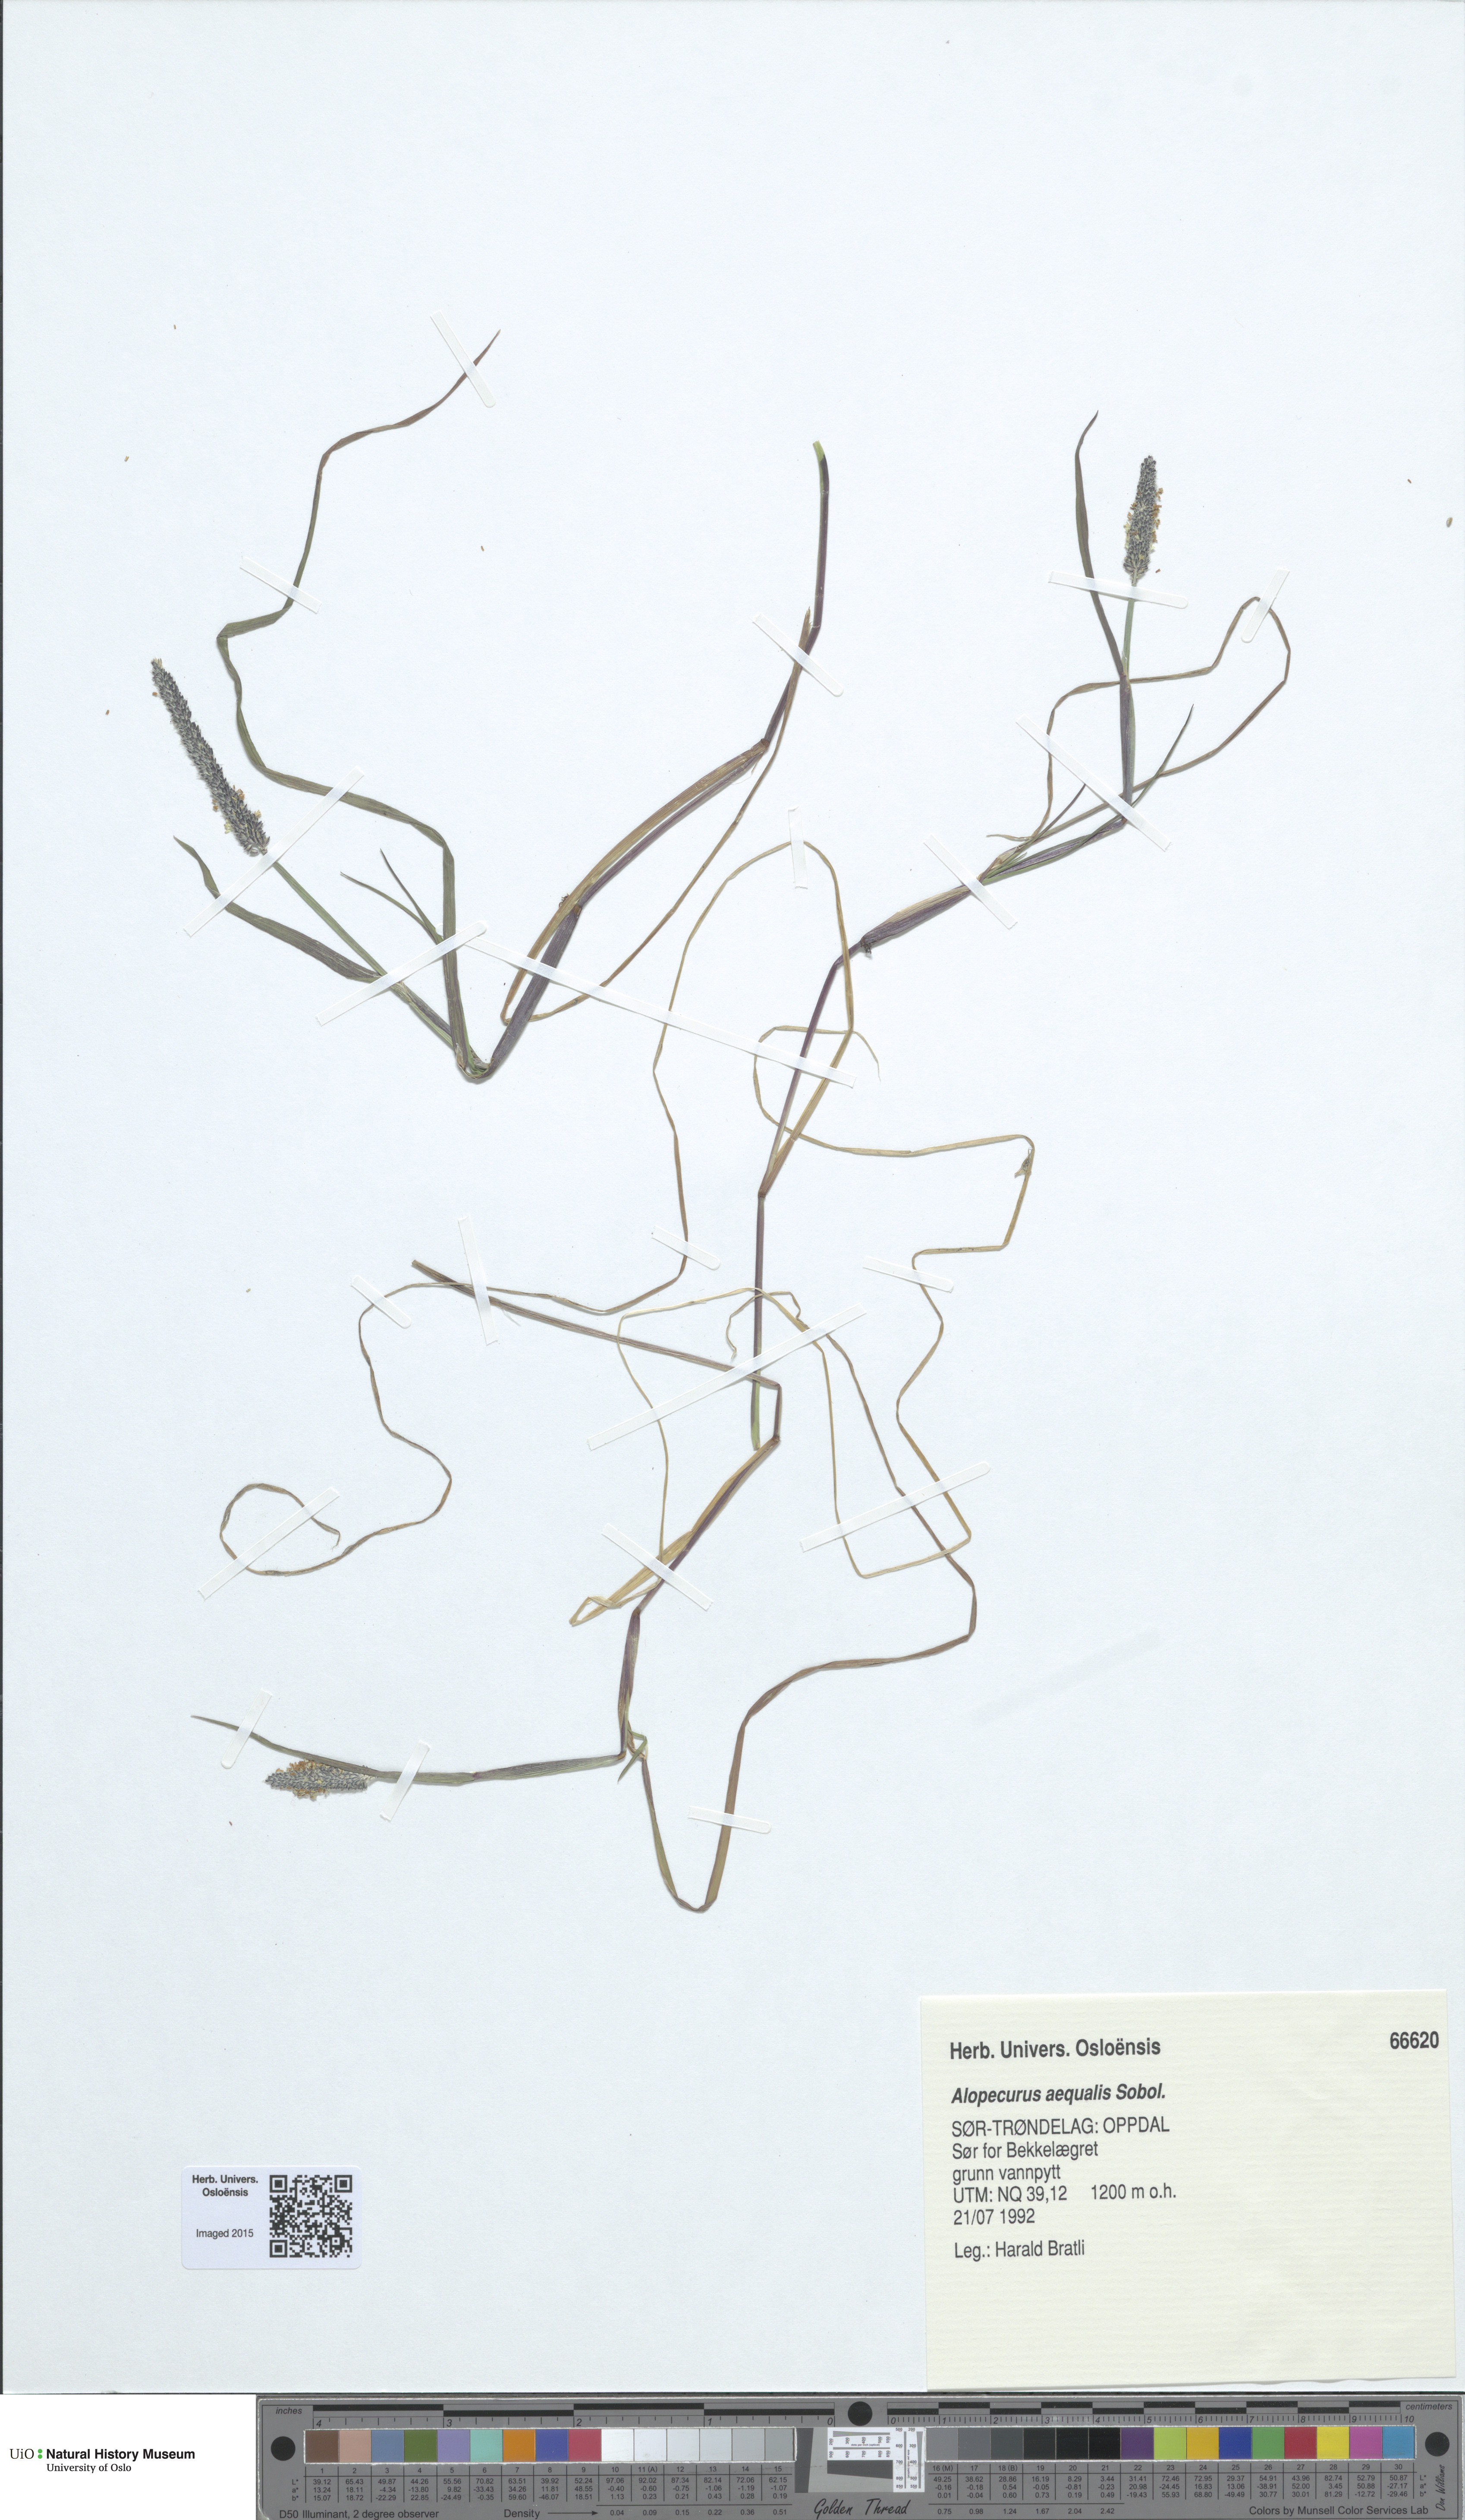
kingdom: Plantae
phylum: Tracheophyta
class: Liliopsida
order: Poales
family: Poaceae
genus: Alopecurus
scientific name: Alopecurus aequalis
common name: Orange foxtail
